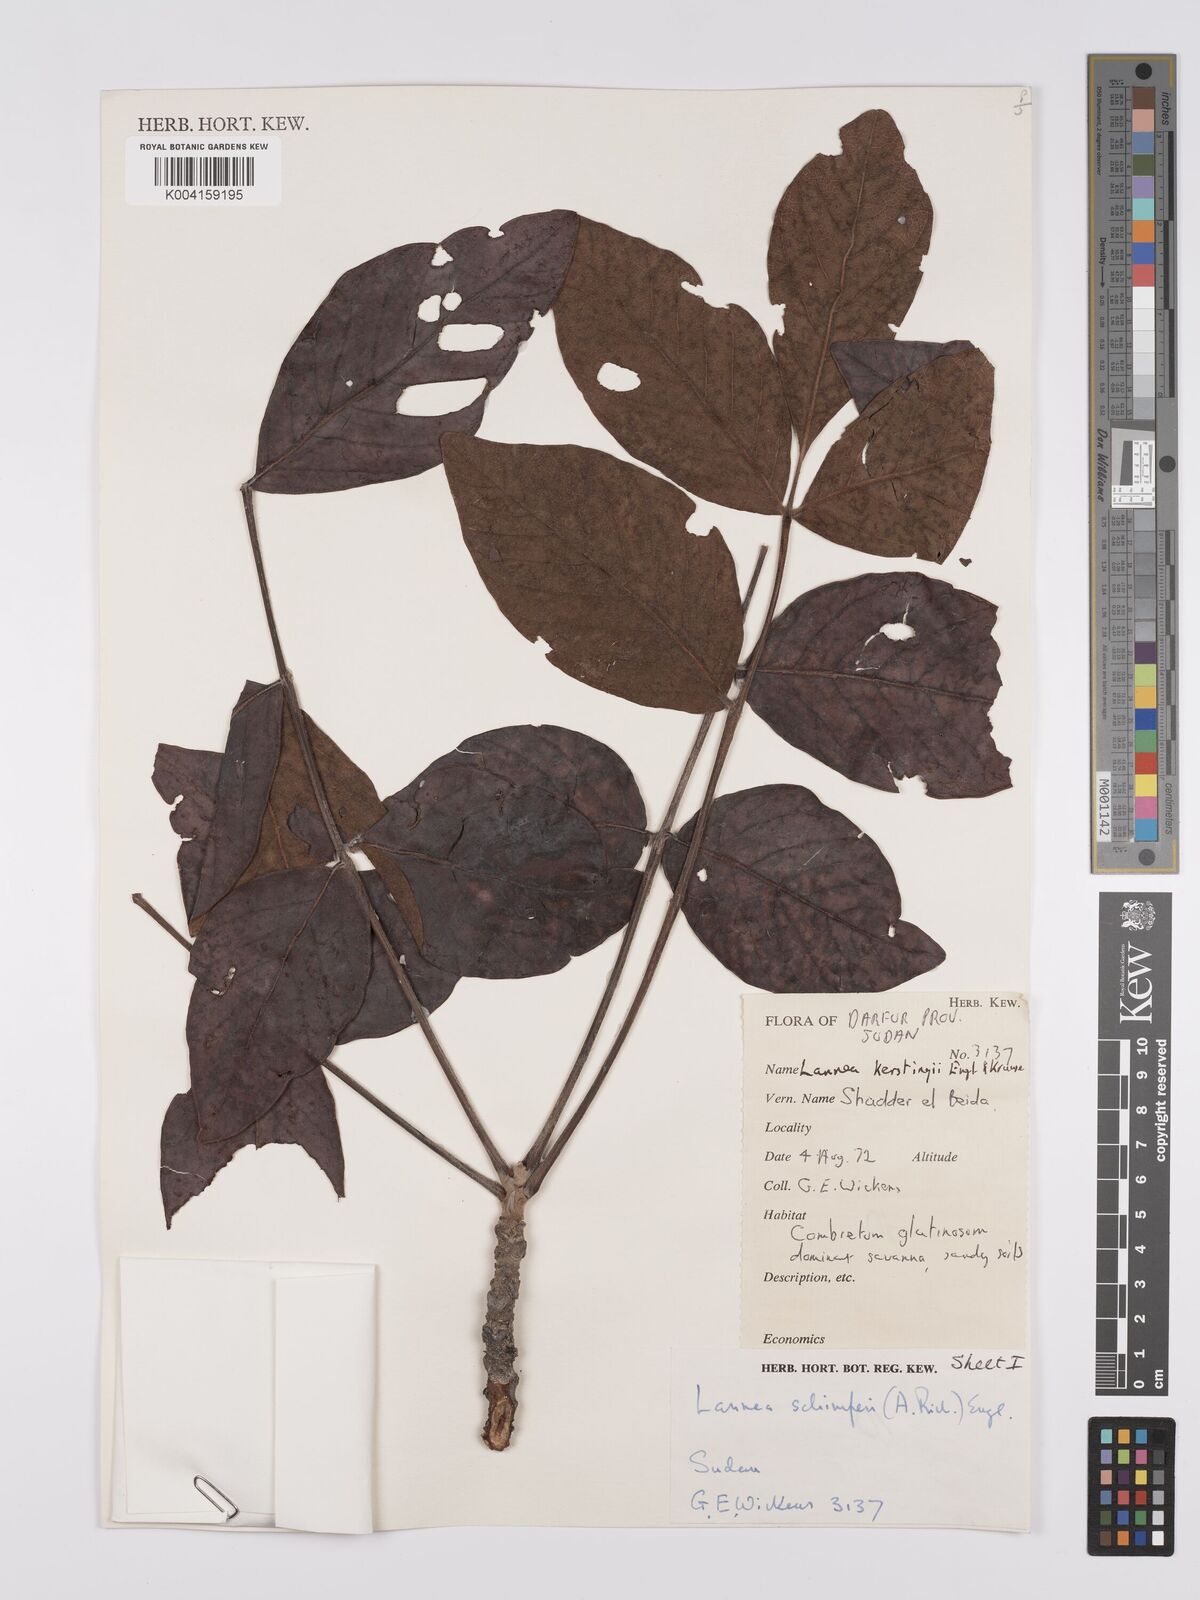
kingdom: Plantae
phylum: Tracheophyta
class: Magnoliopsida
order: Sapindales
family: Anacardiaceae
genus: Lannea
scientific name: Lannea schimperi
